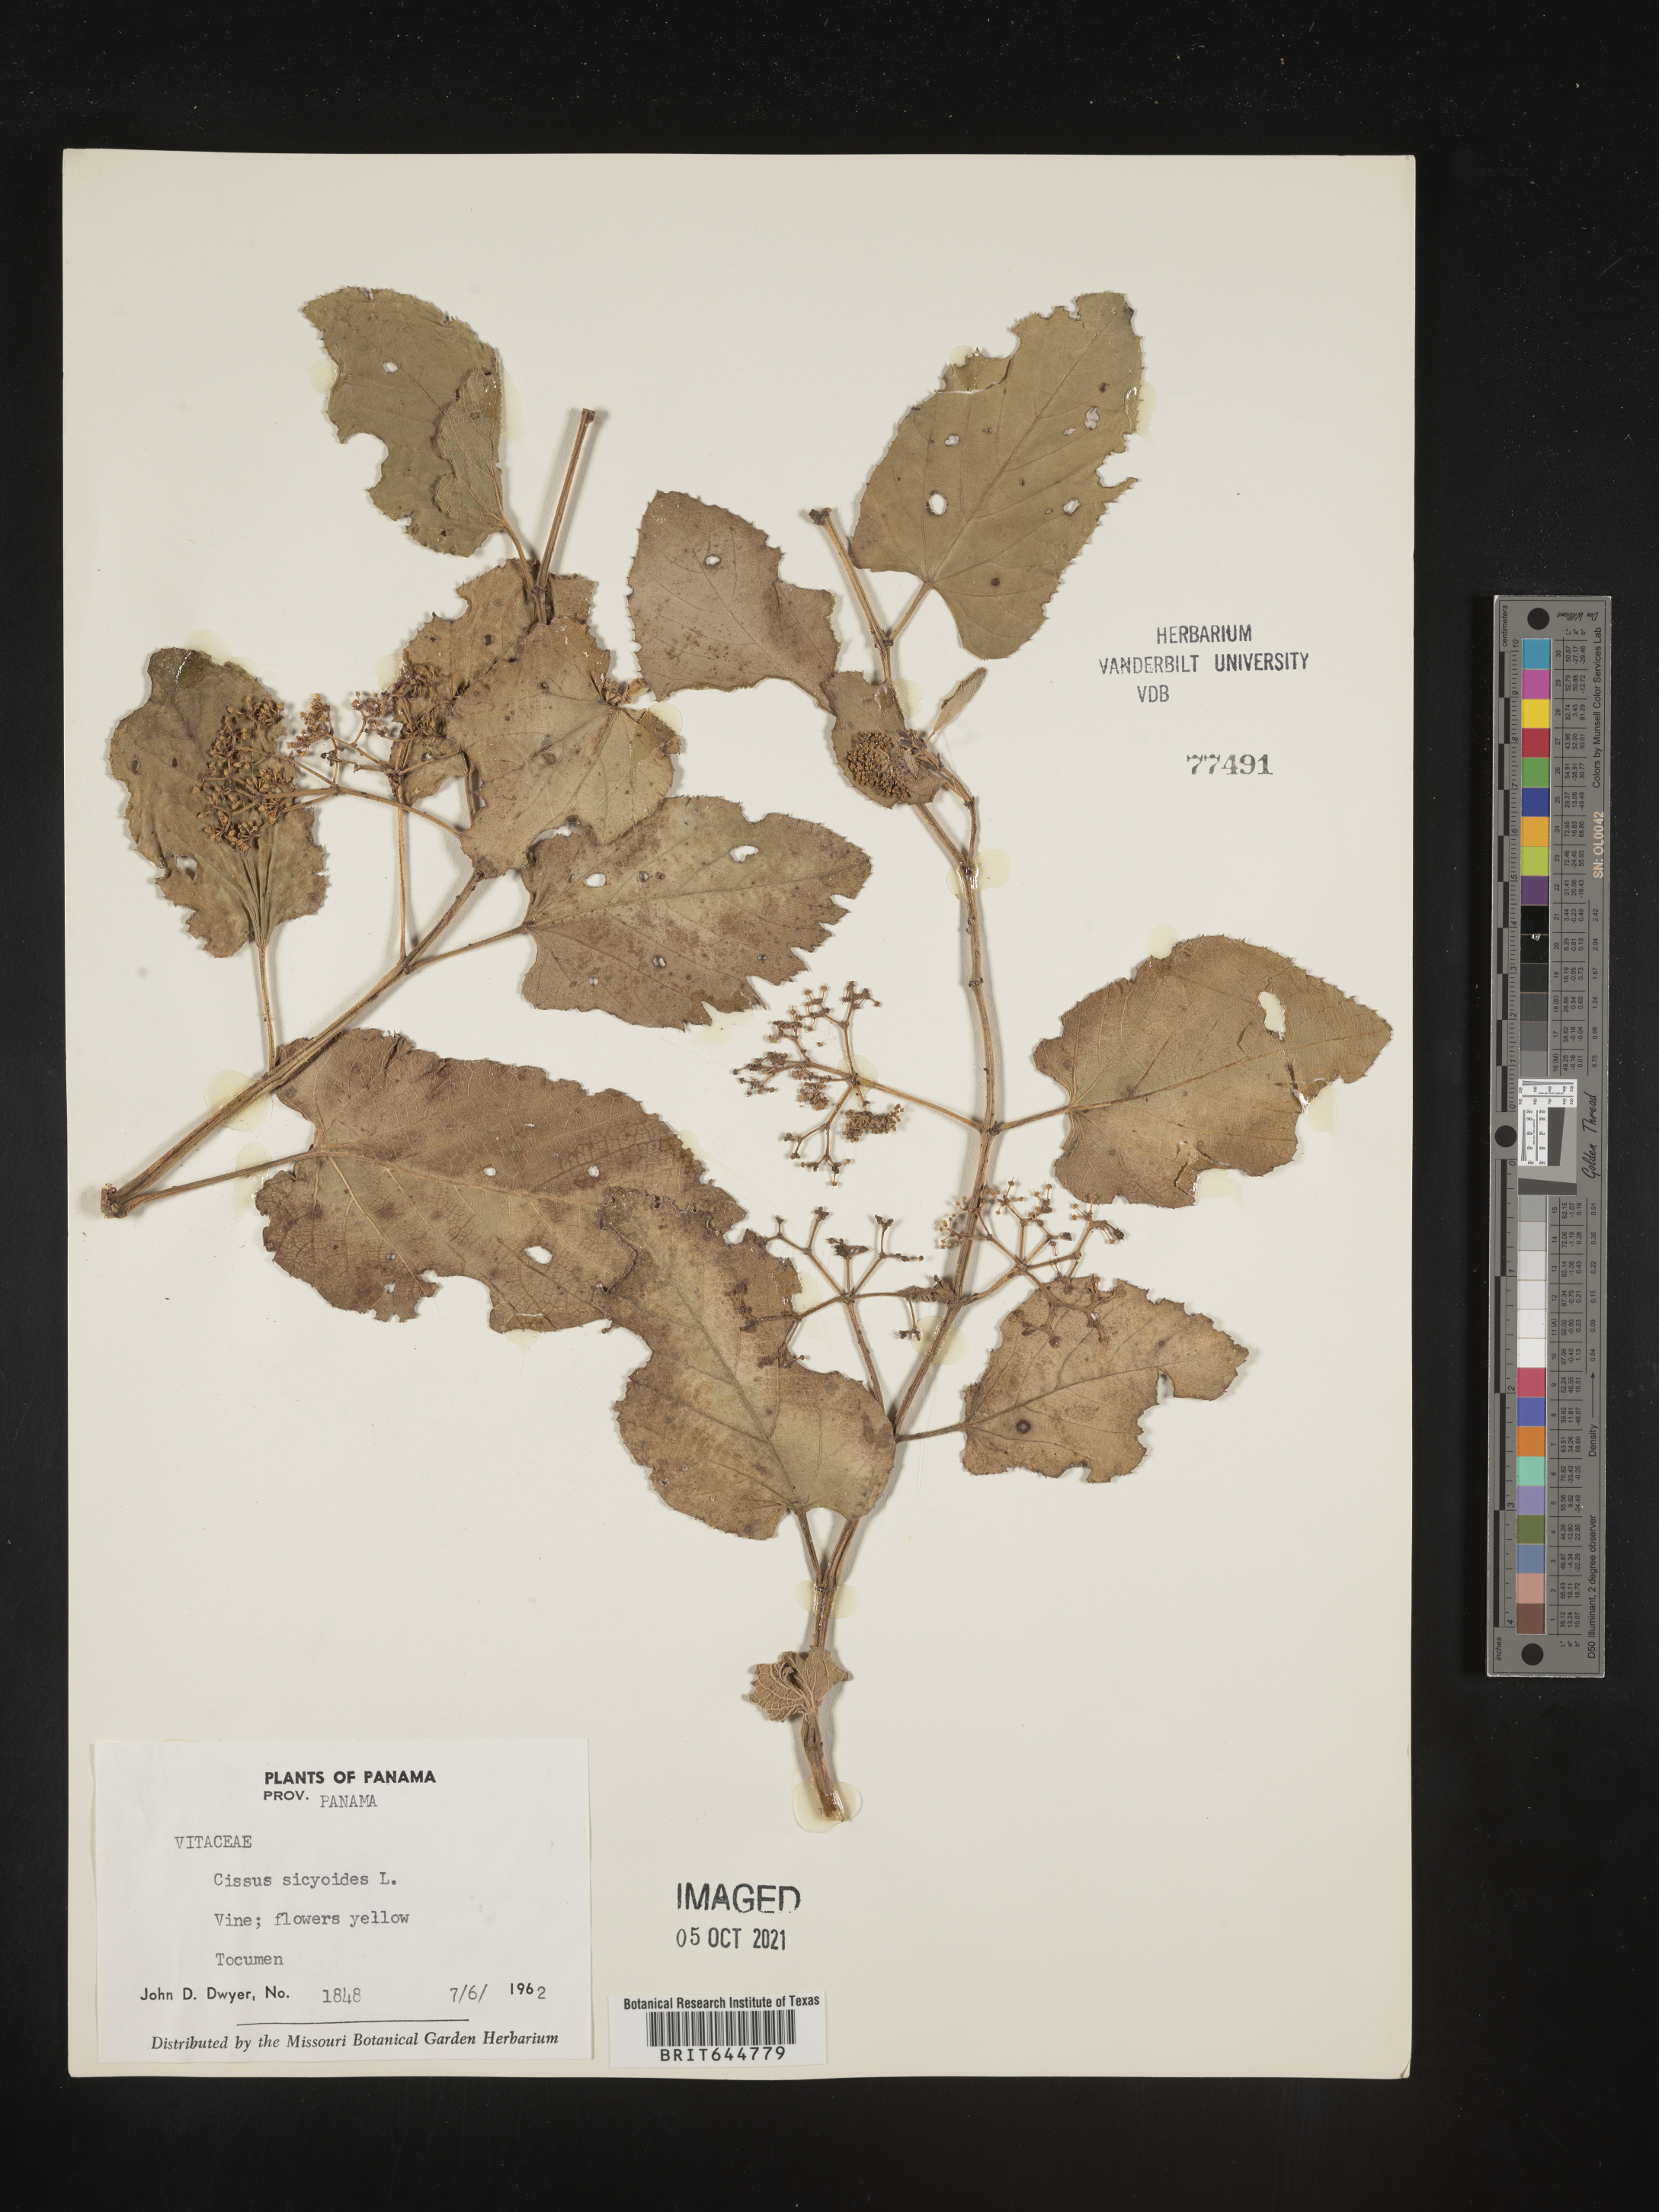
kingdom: Plantae
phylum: Tracheophyta
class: Magnoliopsida
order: Vitales
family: Vitaceae
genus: Cissus
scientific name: Cissus
